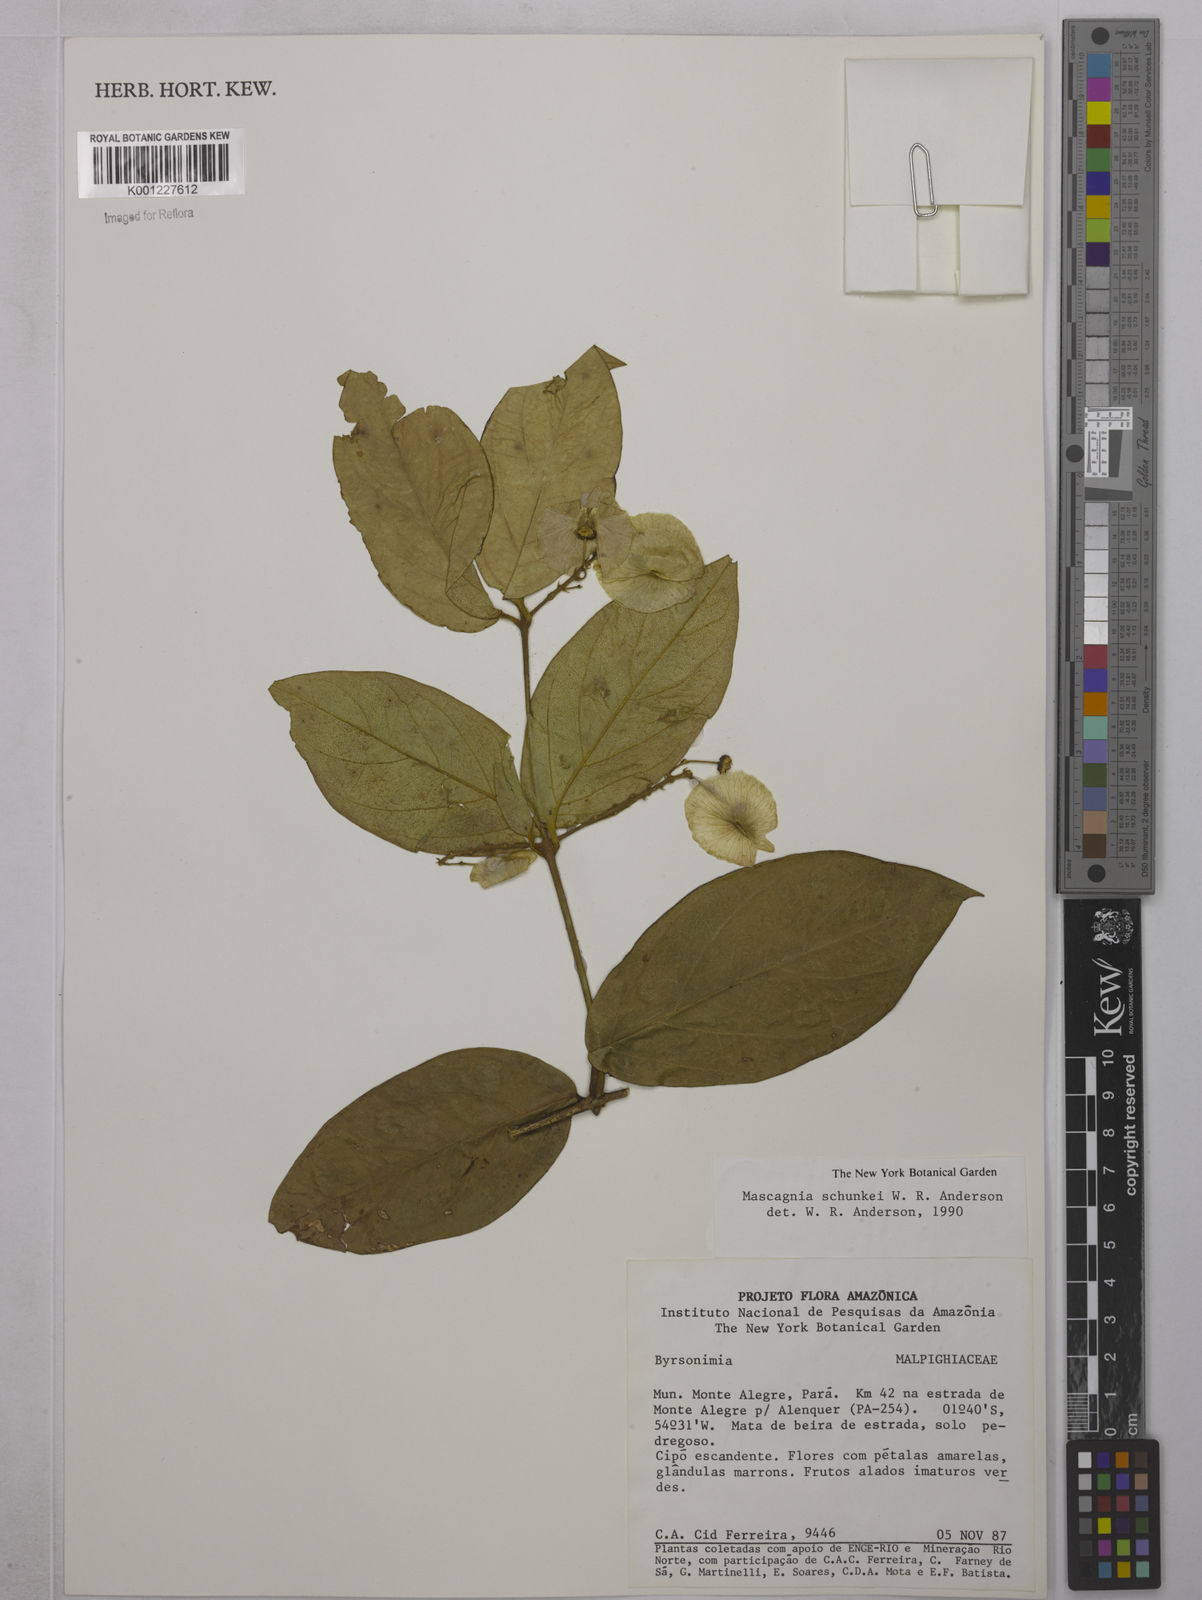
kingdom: Plantae
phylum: Tracheophyta
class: Magnoliopsida
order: Malpighiales
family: Malpighiaceae
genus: Mascagnia
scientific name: Mascagnia schunkei
